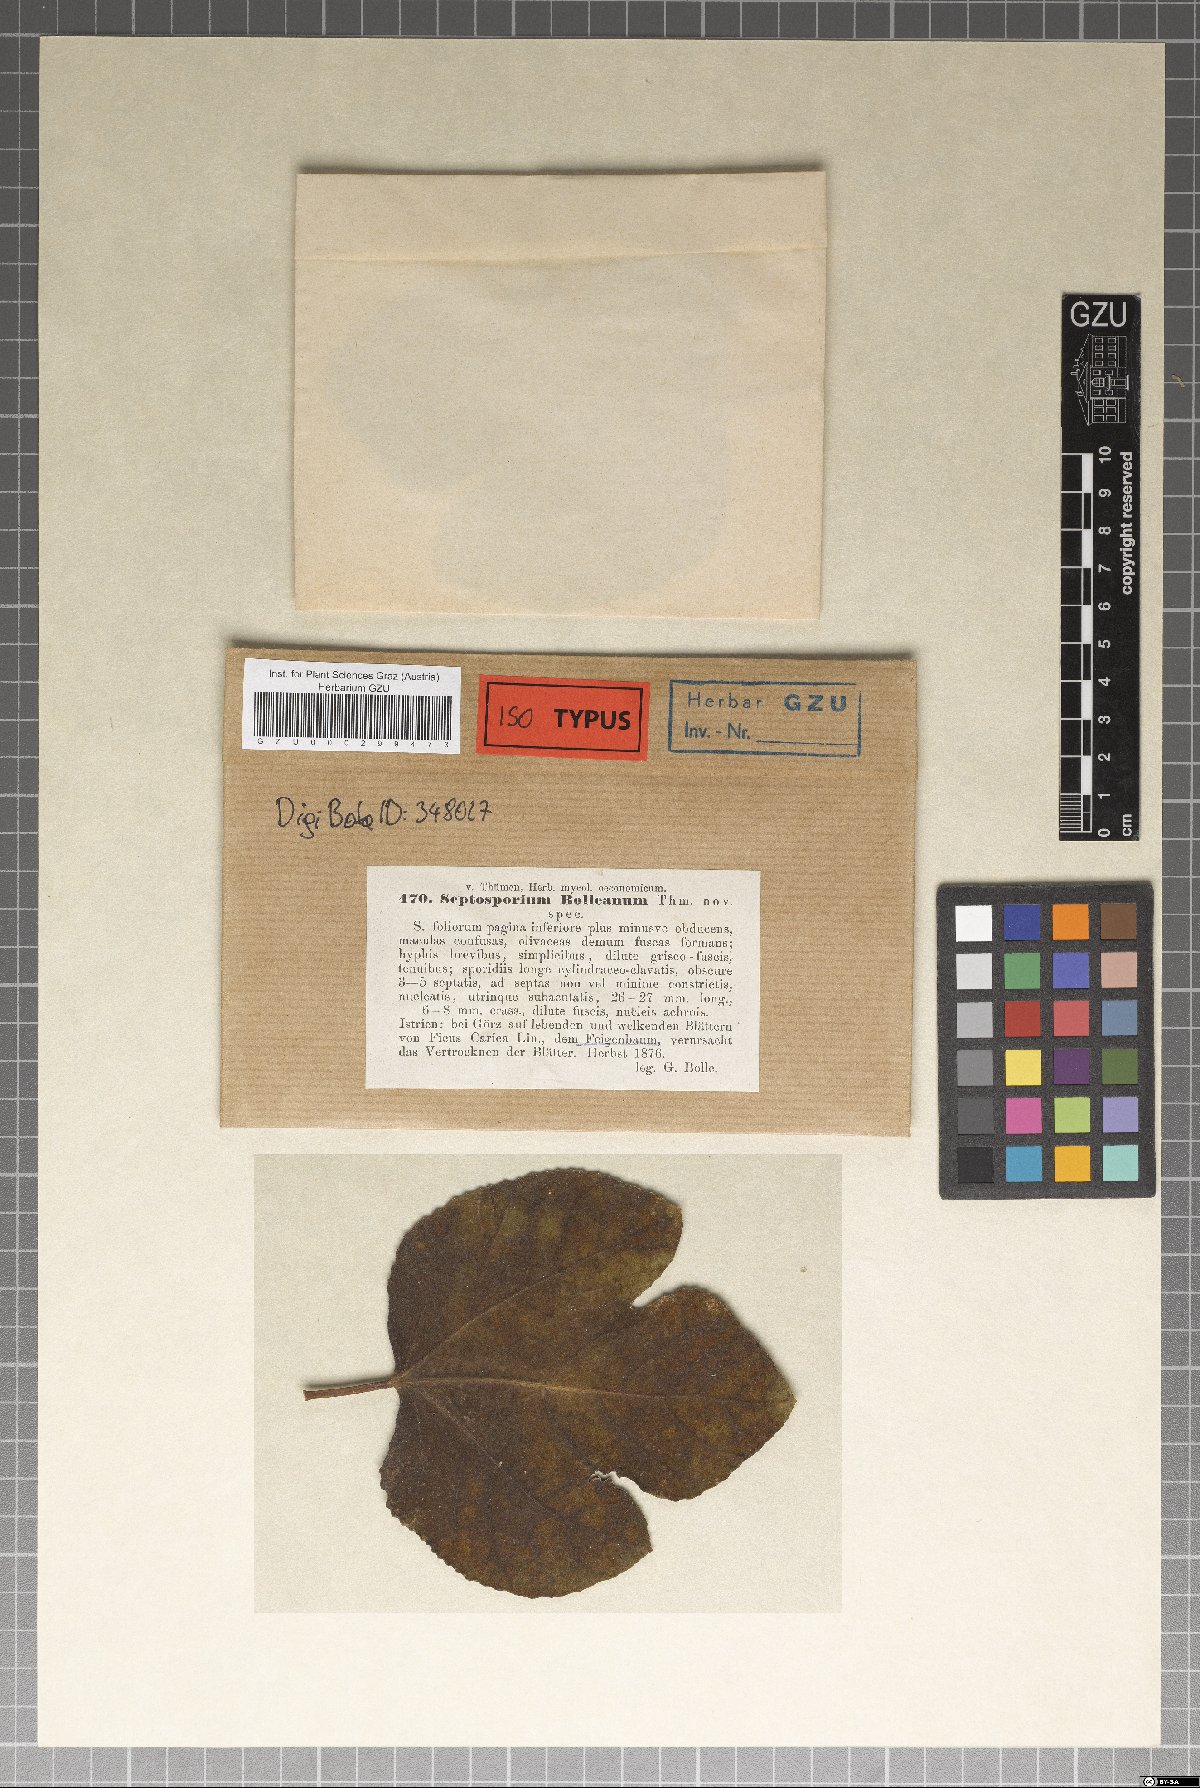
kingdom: Fungi
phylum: Ascomycota
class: Dothideomycetes
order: Mycosphaerellales
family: Mycosphaerellaceae
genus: Passalora
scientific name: Passalora bolleana
